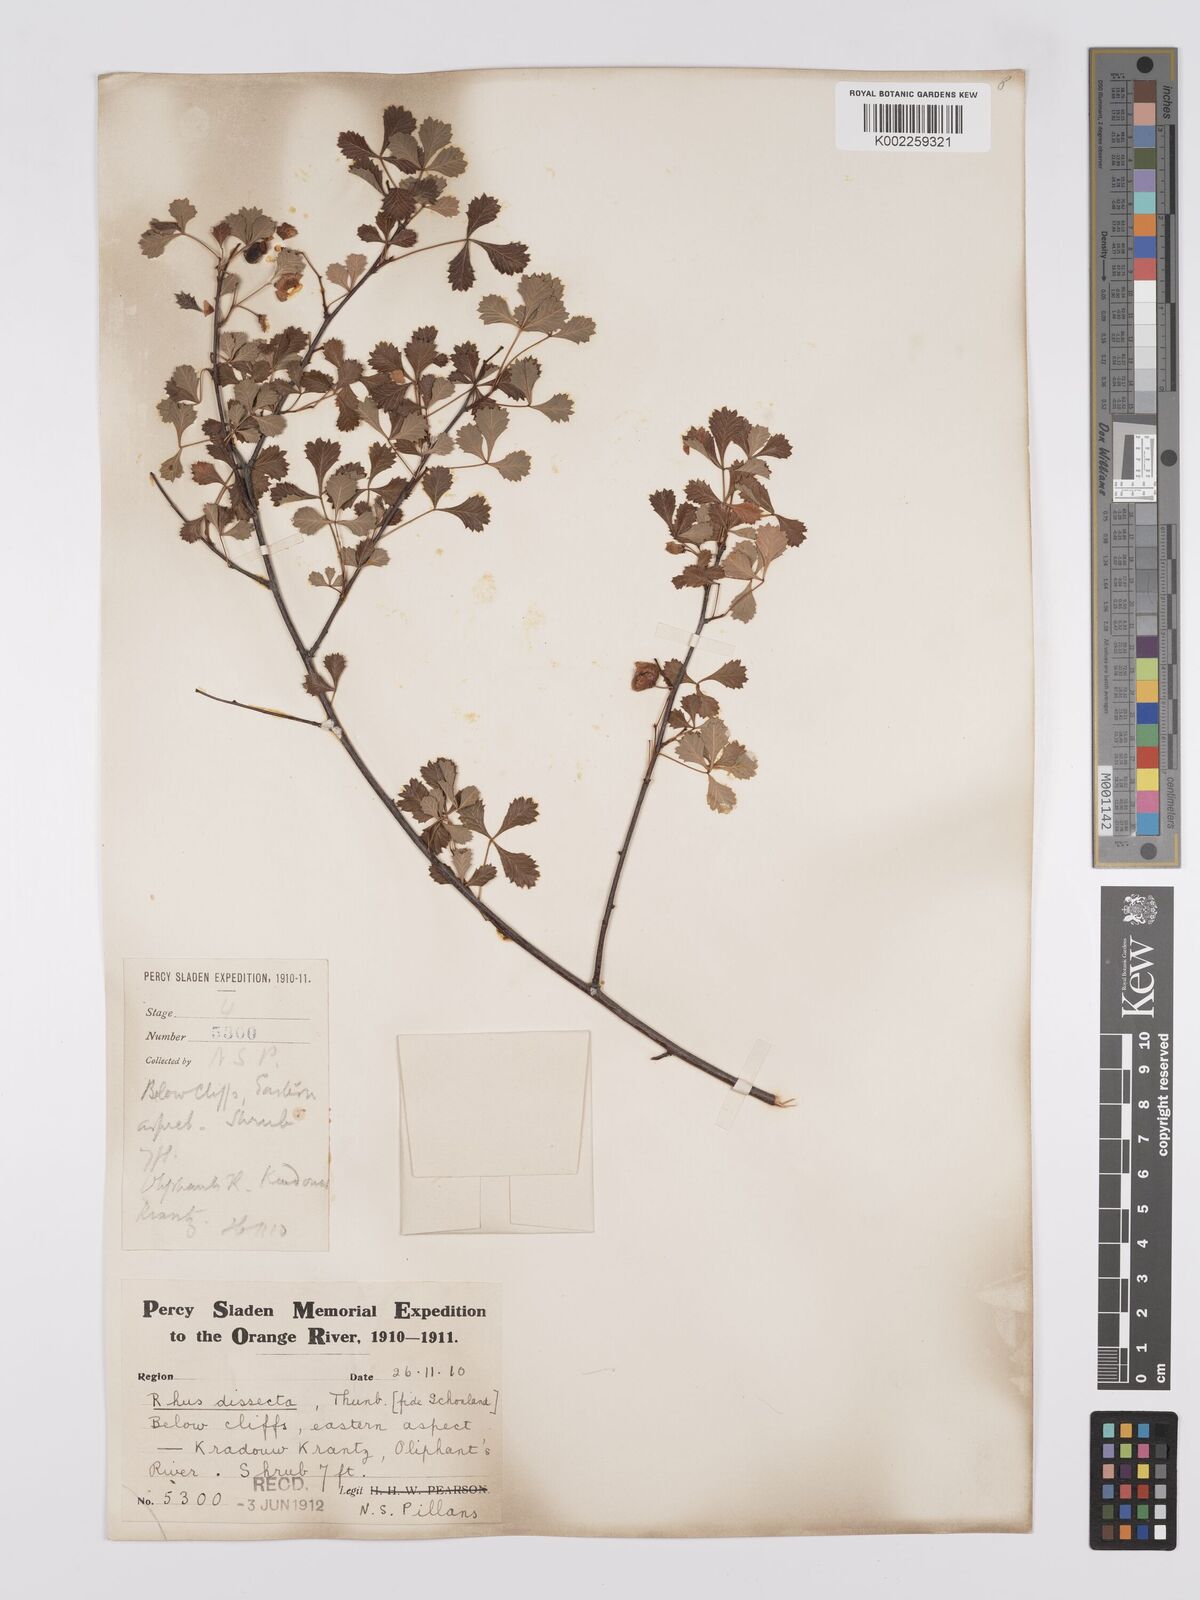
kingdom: Plantae
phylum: Tracheophyta
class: Magnoliopsida
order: Sapindales
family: Anacardiaceae
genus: Searsia
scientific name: Searsia dissecta
